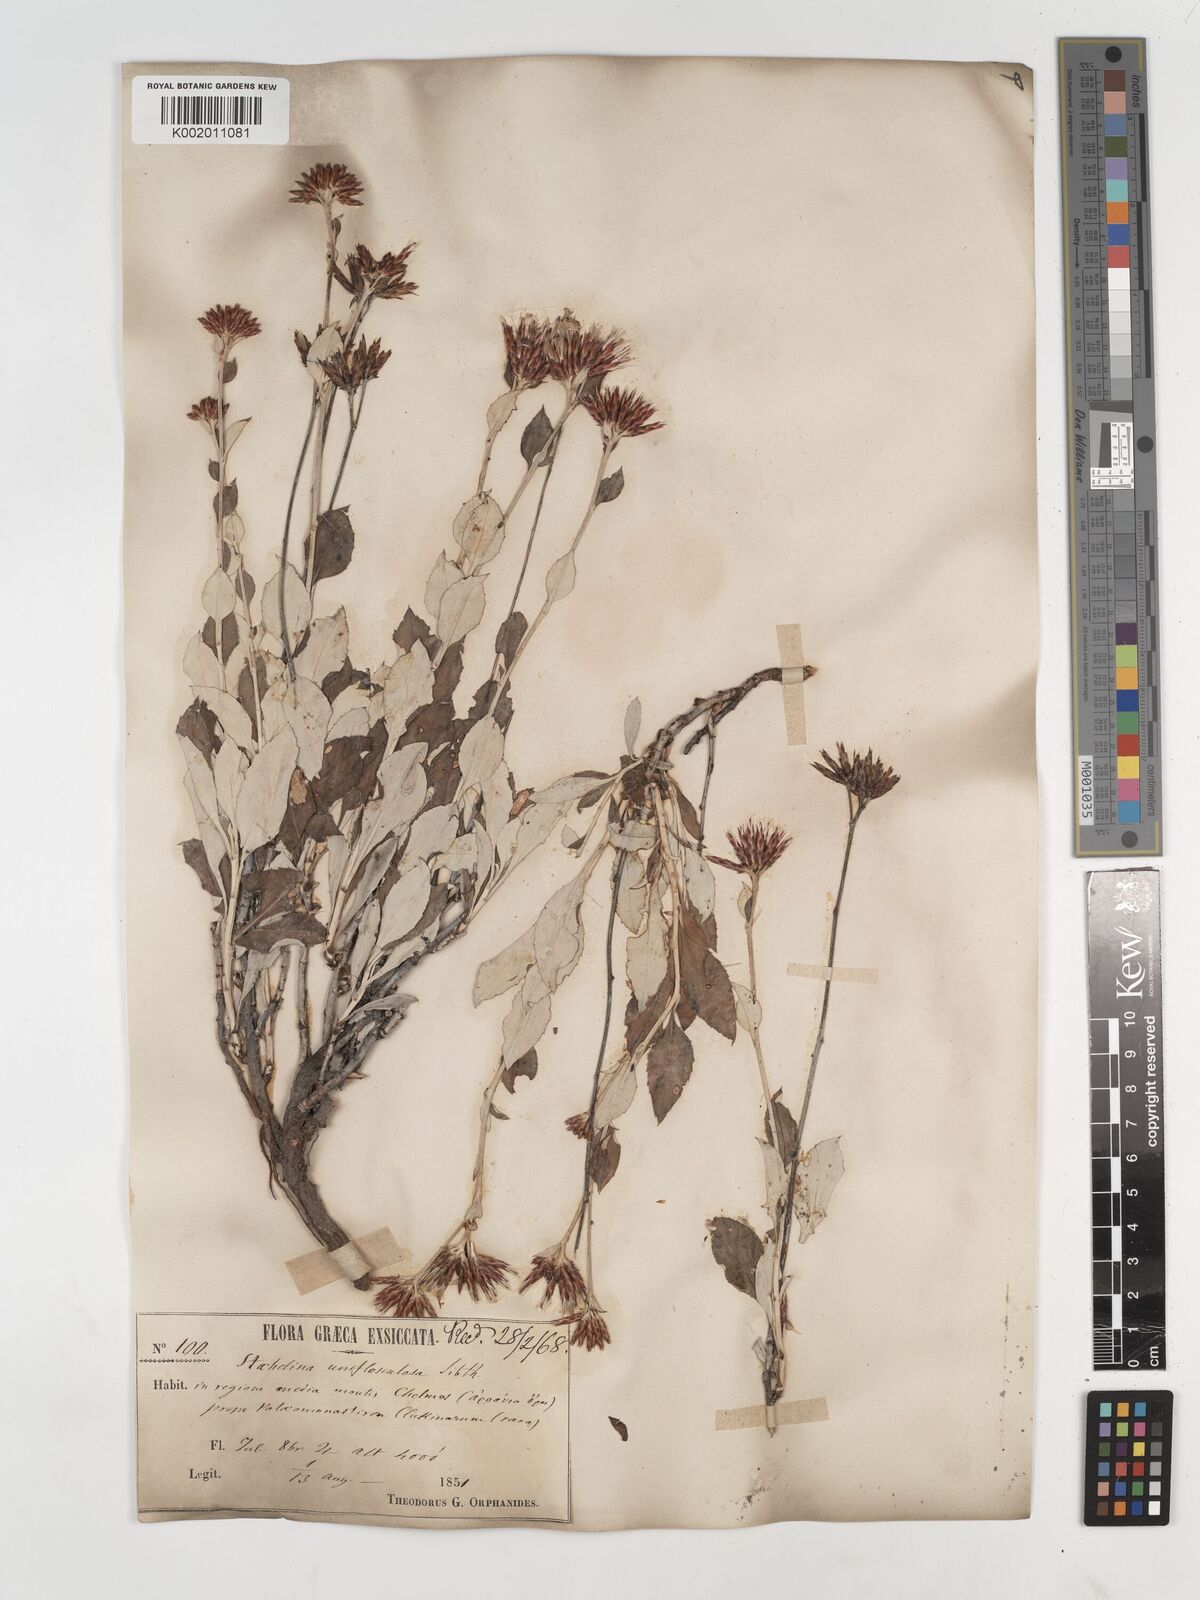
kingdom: Plantae
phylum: Tracheophyta
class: Magnoliopsida
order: Asterales
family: Asteraceae
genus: Staehelina
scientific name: Staehelina uniflosculosa
